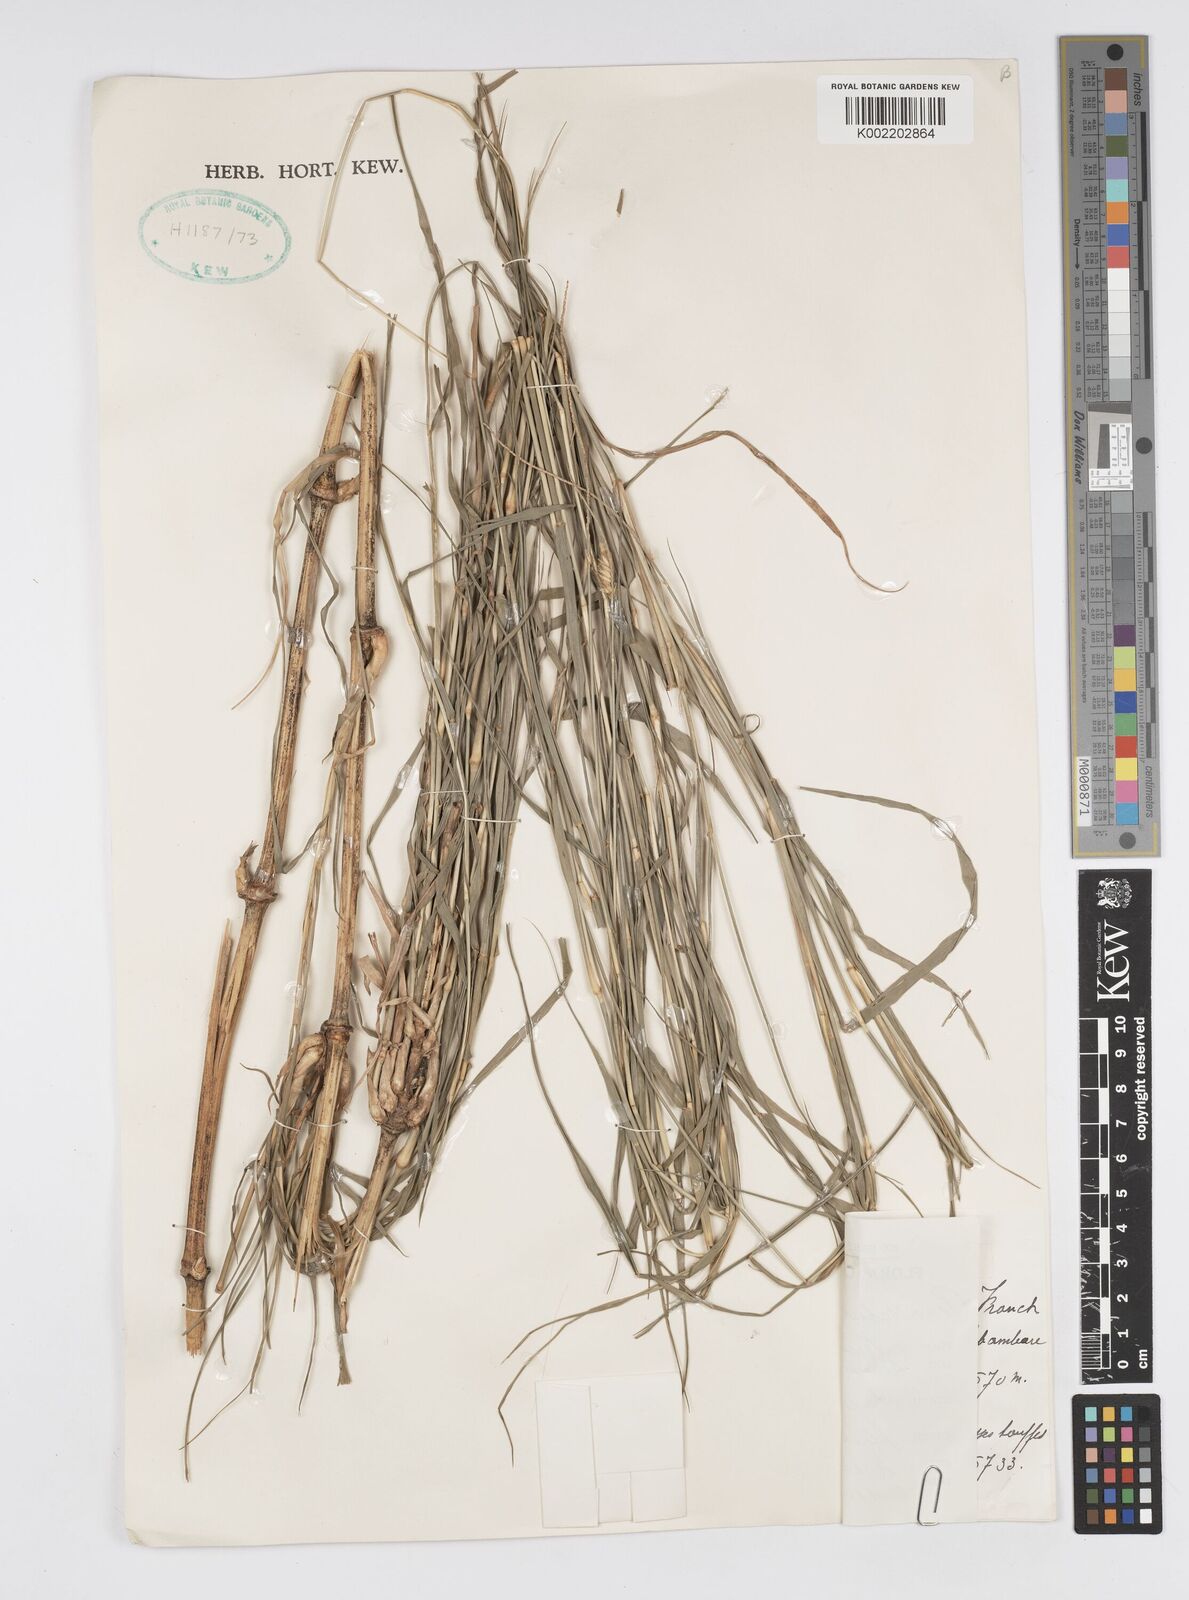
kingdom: Plantae
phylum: Tracheophyta
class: Liliopsida
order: Poales
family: Poaceae
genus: Cenchrus
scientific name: Cenchrus nodiflorus
